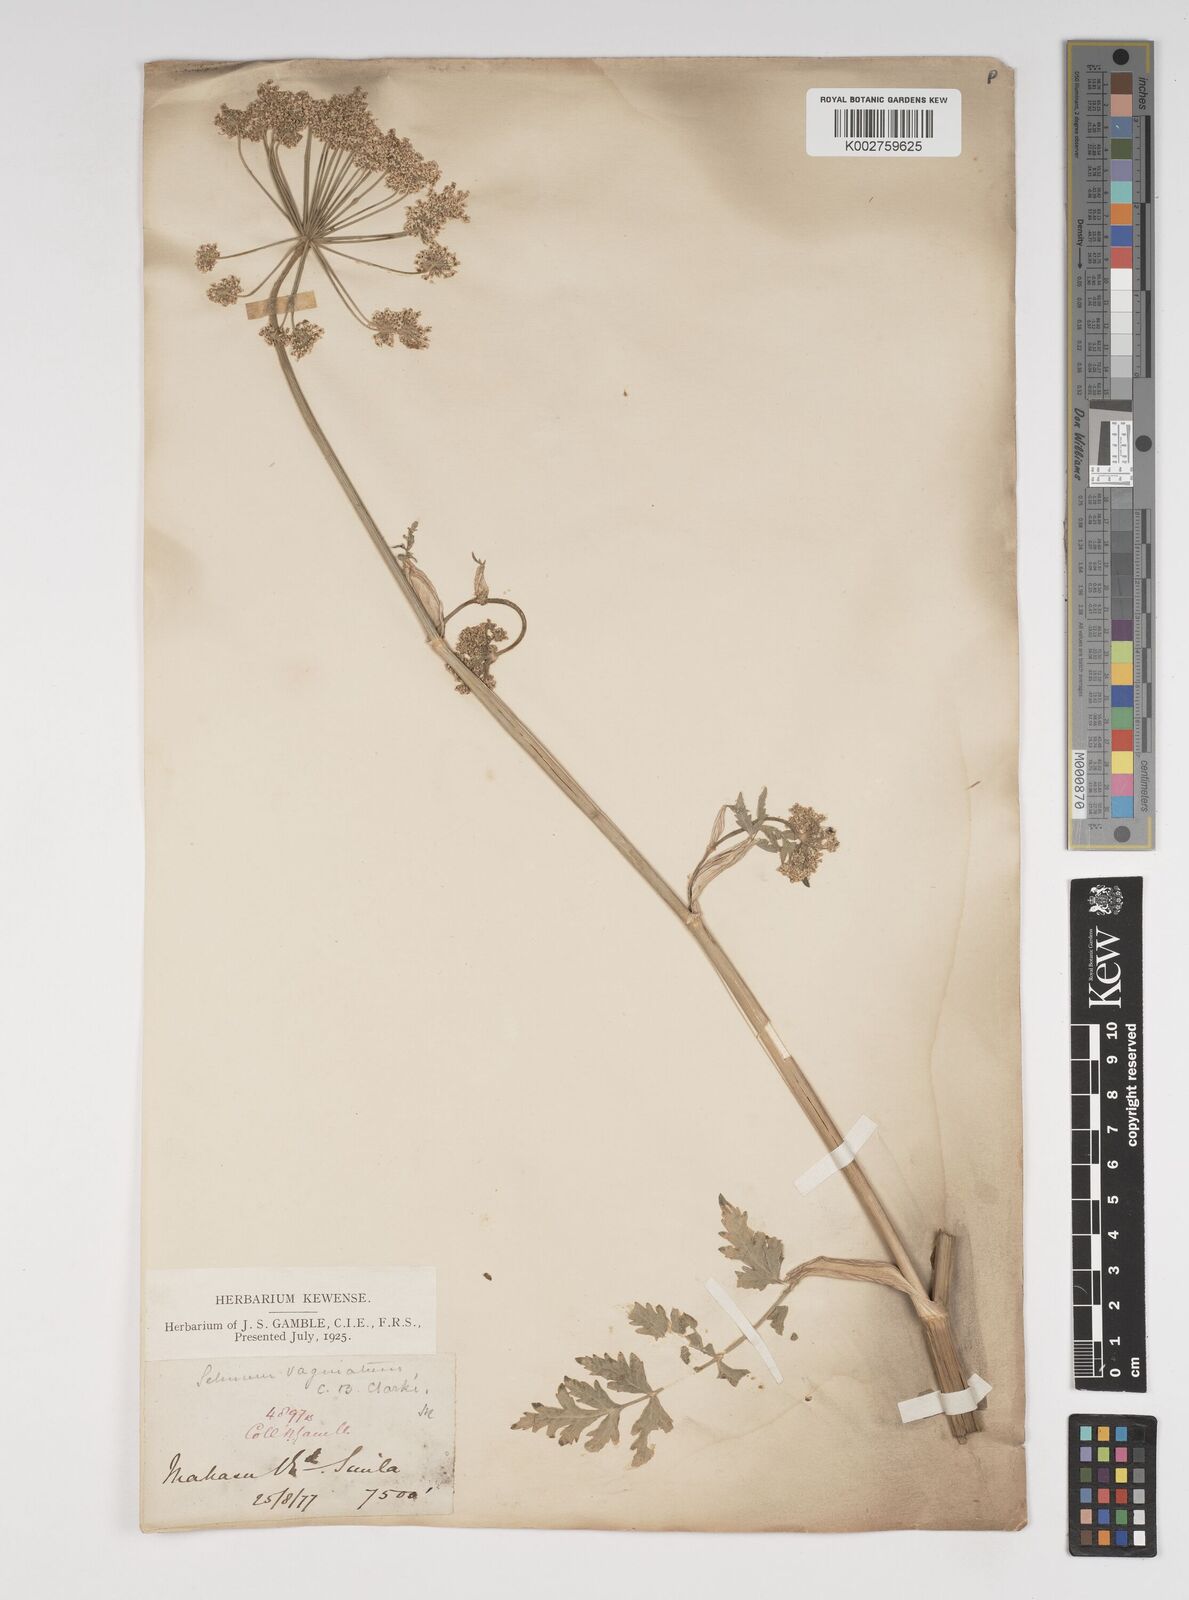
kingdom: Plantae
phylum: Tracheophyta
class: Magnoliopsida
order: Apiales
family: Apiaceae
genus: Selinum
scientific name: Selinum vaginatum
